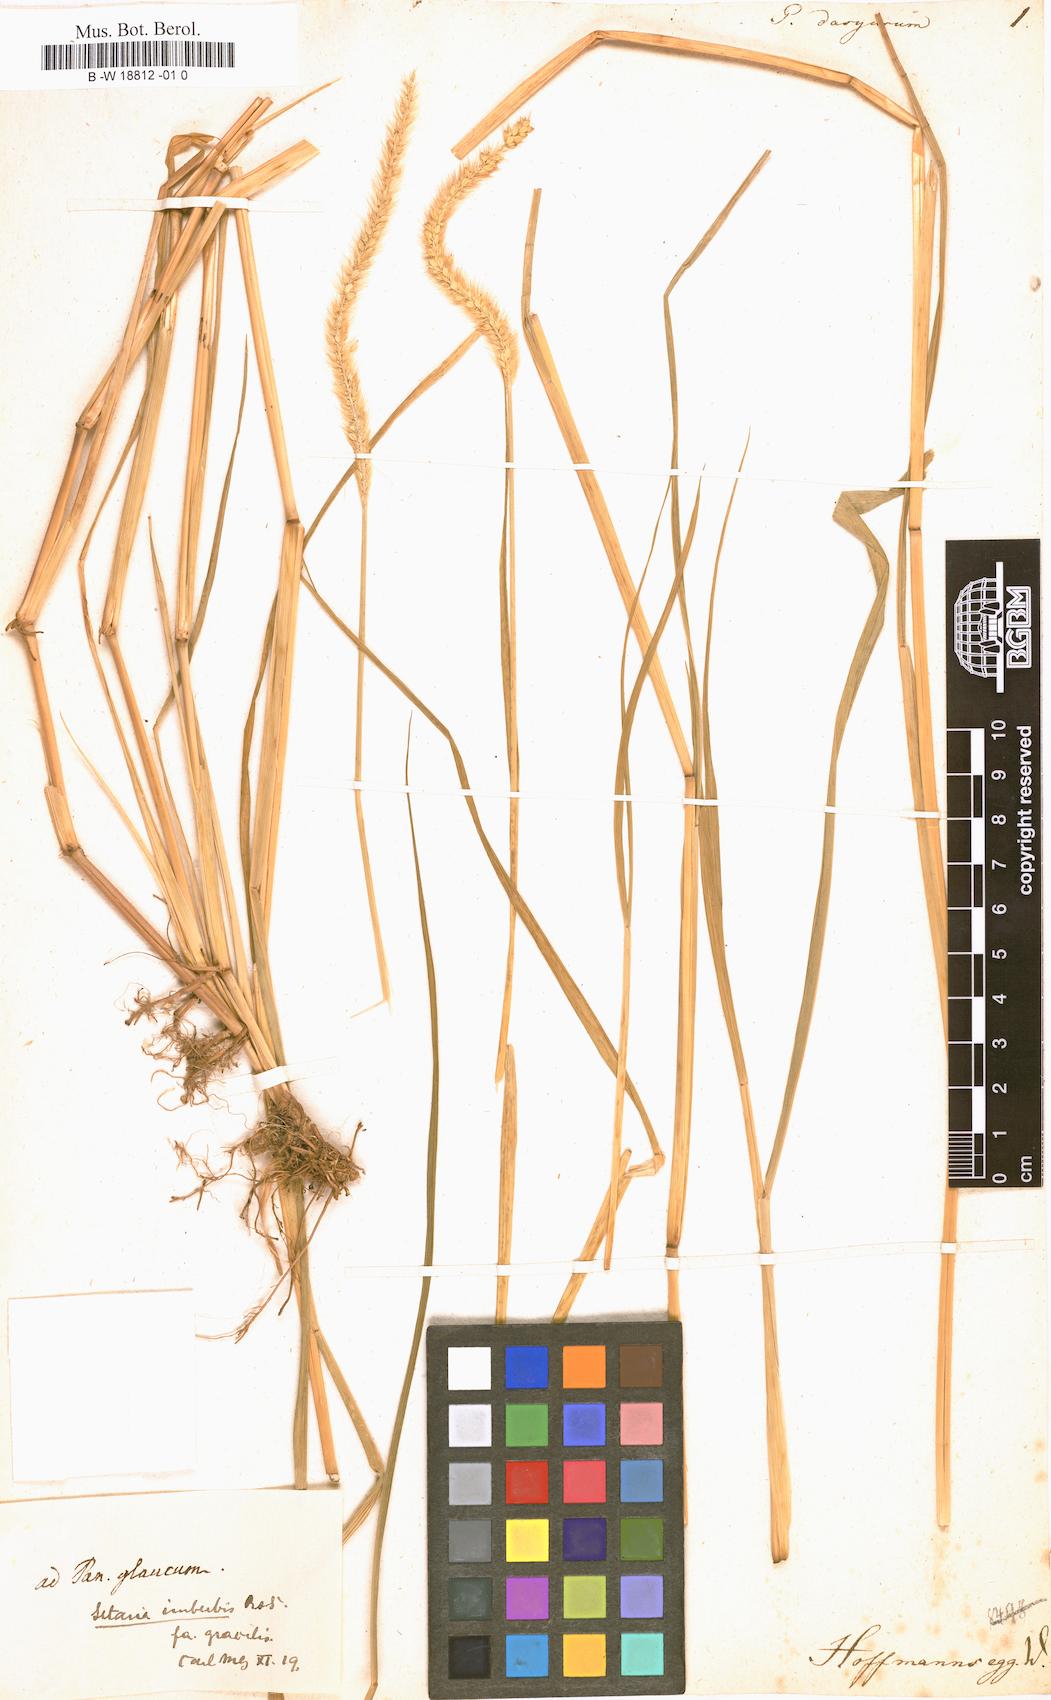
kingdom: Plantae
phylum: Tracheophyta
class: Liliopsida
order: Poales
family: Poaceae
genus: Setaria
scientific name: Setaria parviflora
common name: Knotroot bristle-grass
